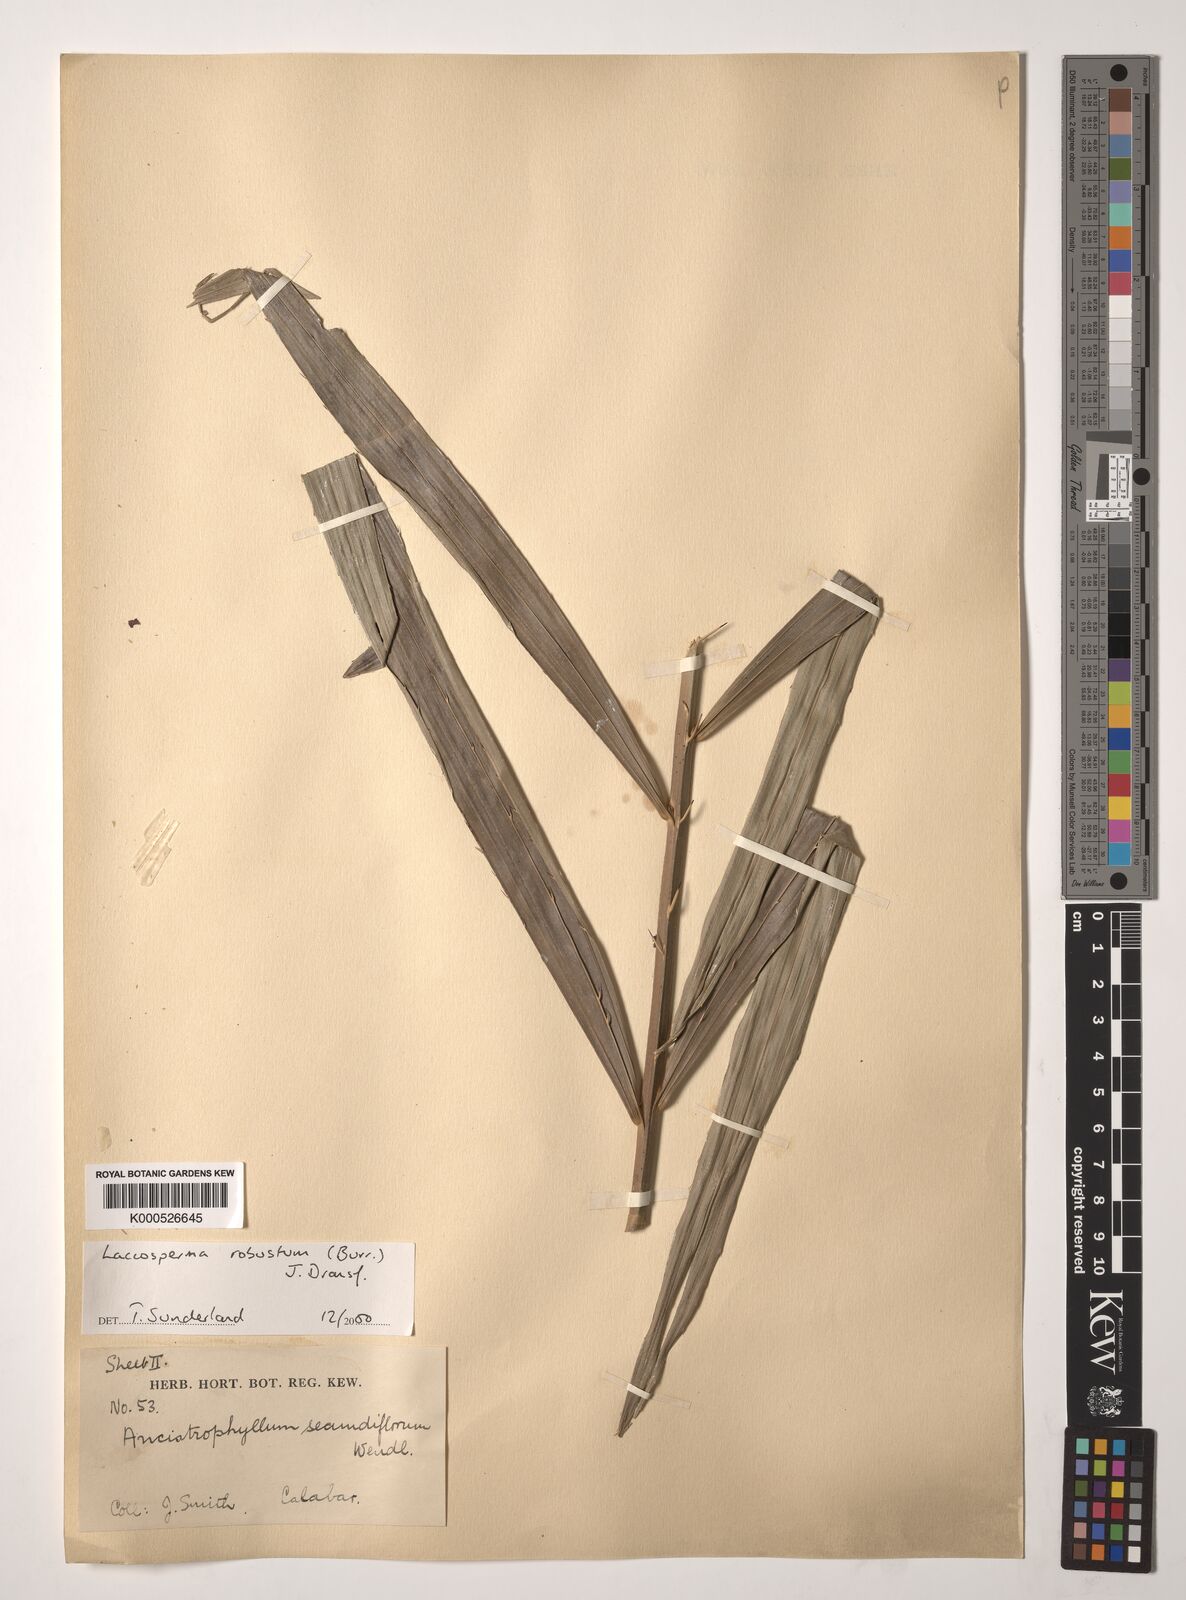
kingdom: Plantae
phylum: Tracheophyta
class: Liliopsida
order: Arecales
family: Arecaceae
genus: Laccosperma
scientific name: Laccosperma robustum
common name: Rattan
